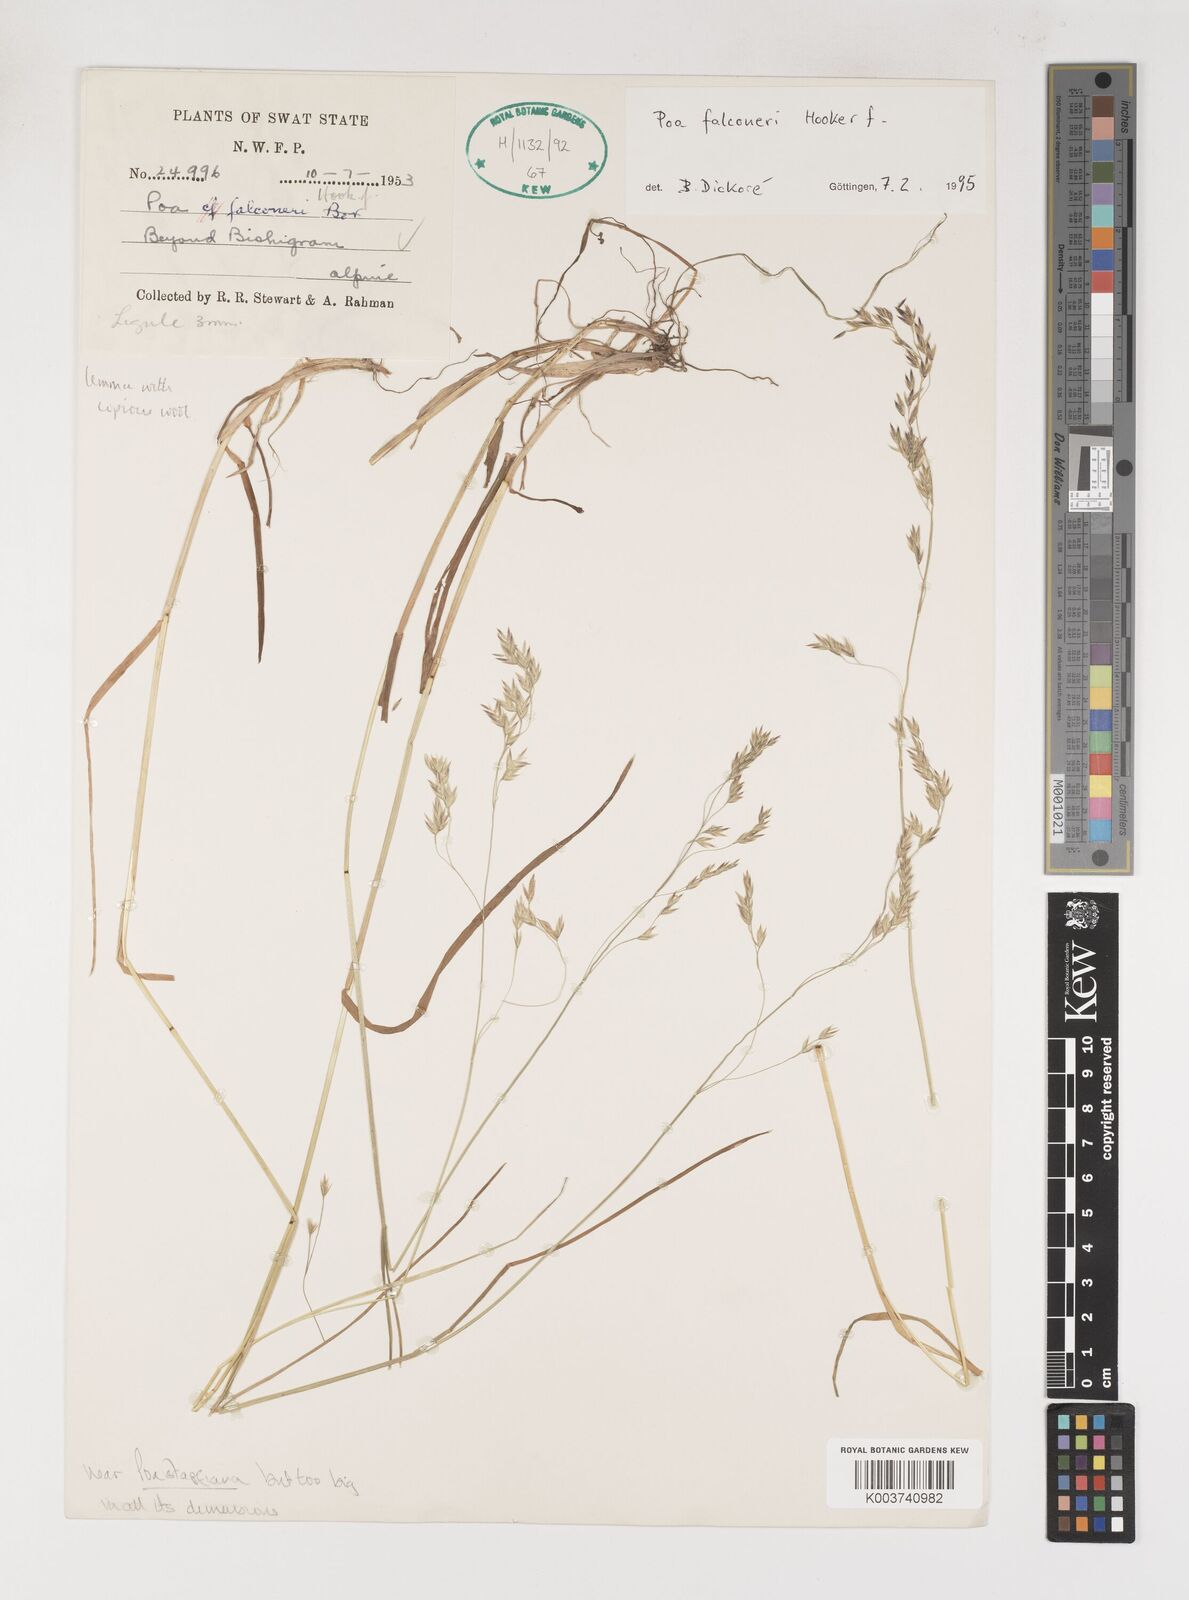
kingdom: Plantae
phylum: Tracheophyta
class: Liliopsida
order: Poales
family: Poaceae
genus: Poa
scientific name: Poa falconeri
